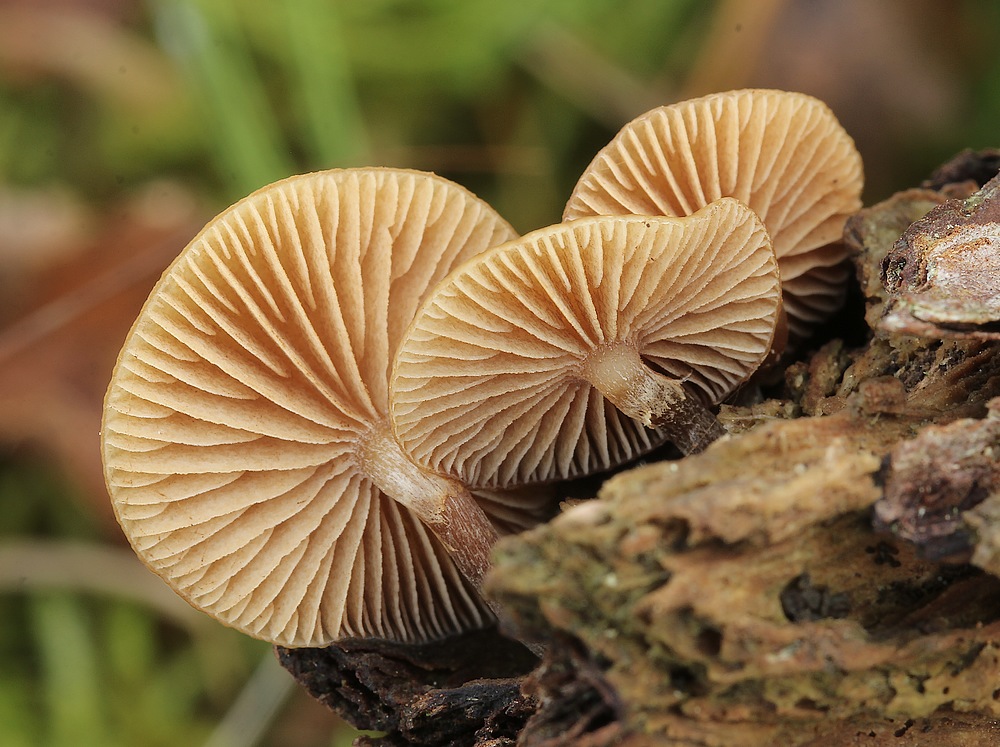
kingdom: Fungi
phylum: Basidiomycota
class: Agaricomycetes
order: Agaricales
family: Hymenogastraceae
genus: Galerina
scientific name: Galerina marginata
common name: randbæltet hjelmhat
